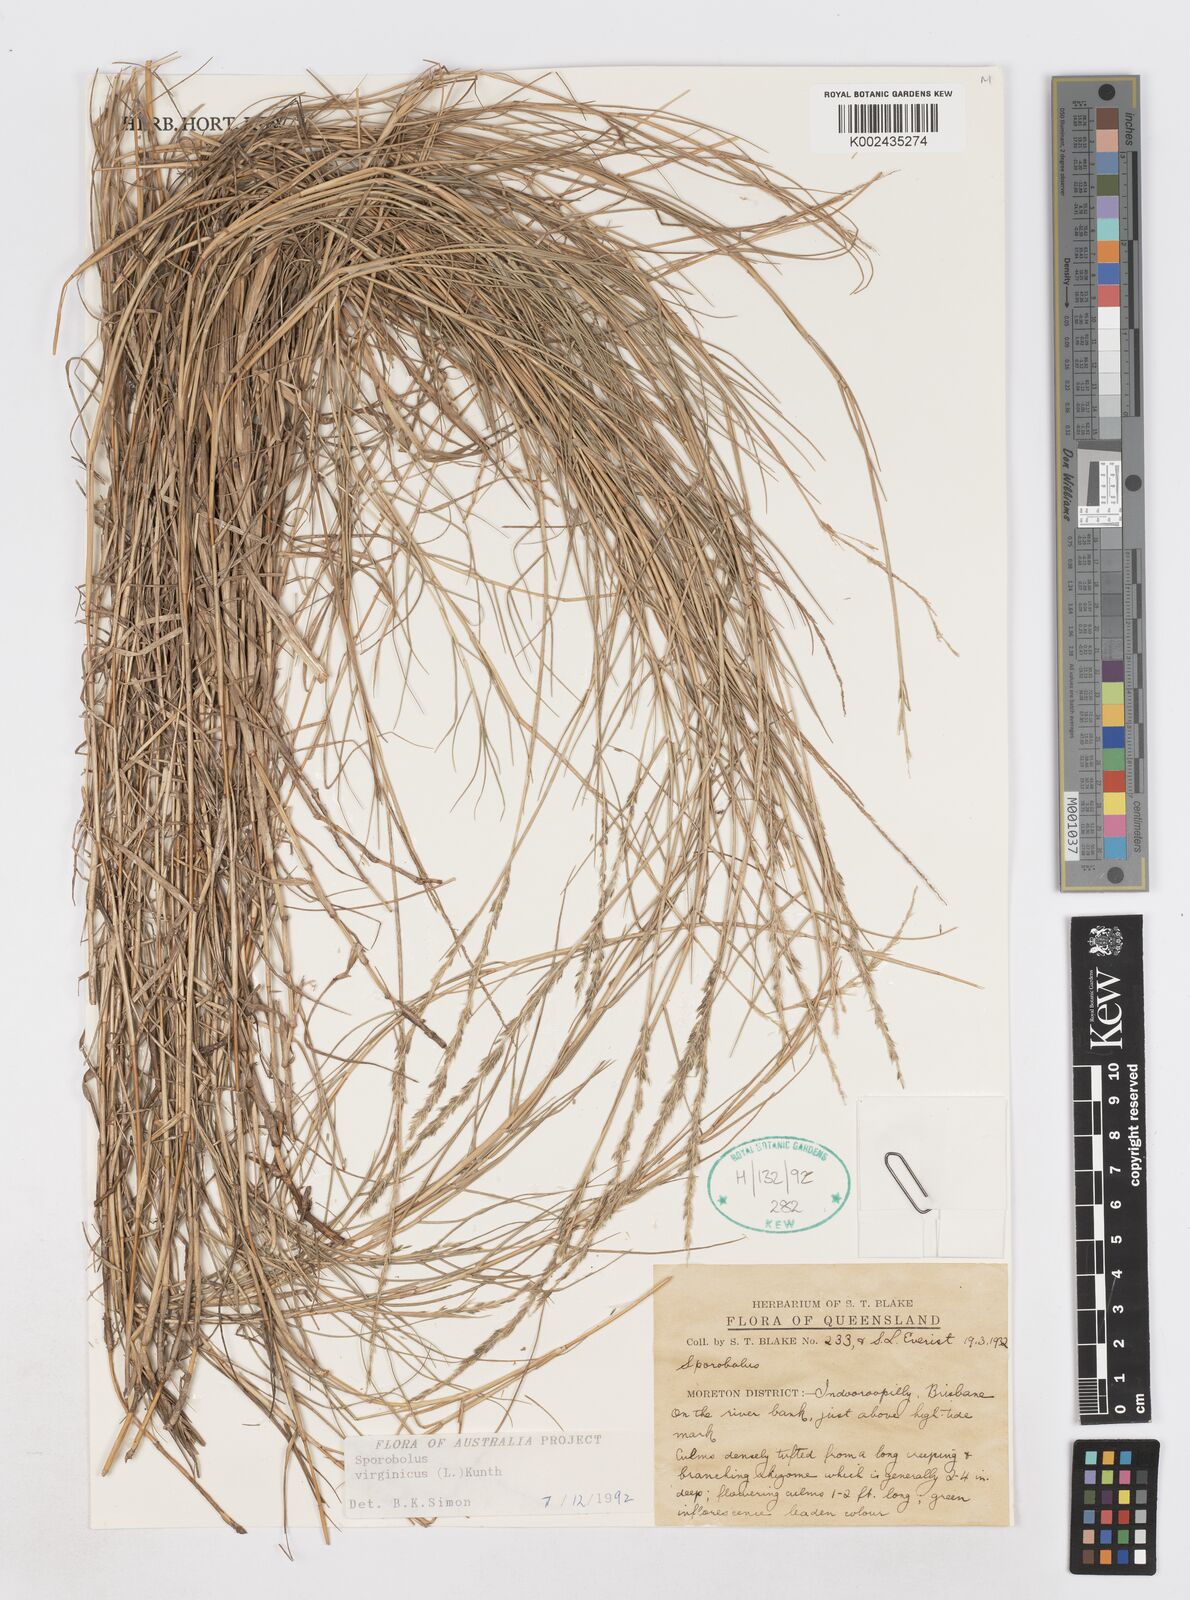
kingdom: Plantae
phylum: Tracheophyta
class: Liliopsida
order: Poales
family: Poaceae
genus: Sporobolus
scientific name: Sporobolus virginicus
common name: Beach dropseed
